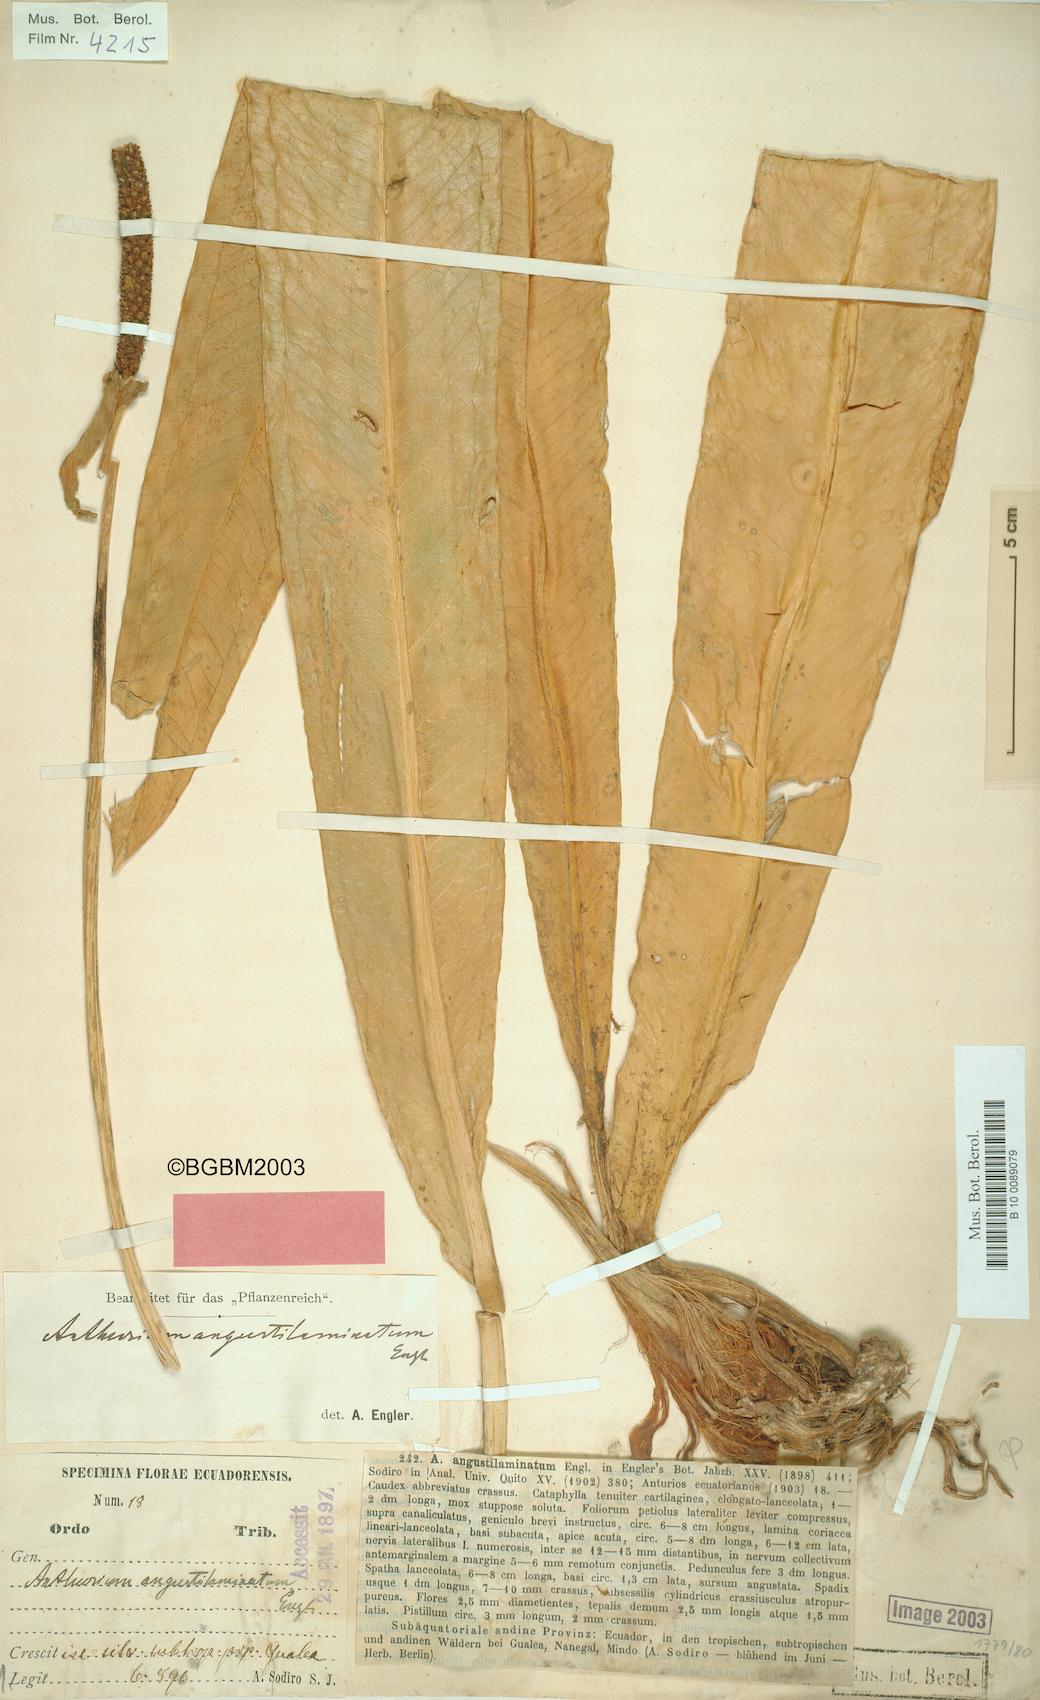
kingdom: Plantae
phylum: Tracheophyta
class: Liliopsida
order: Alismatales
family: Araceae
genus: Anthurium
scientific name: Anthurium angustilaminatum
